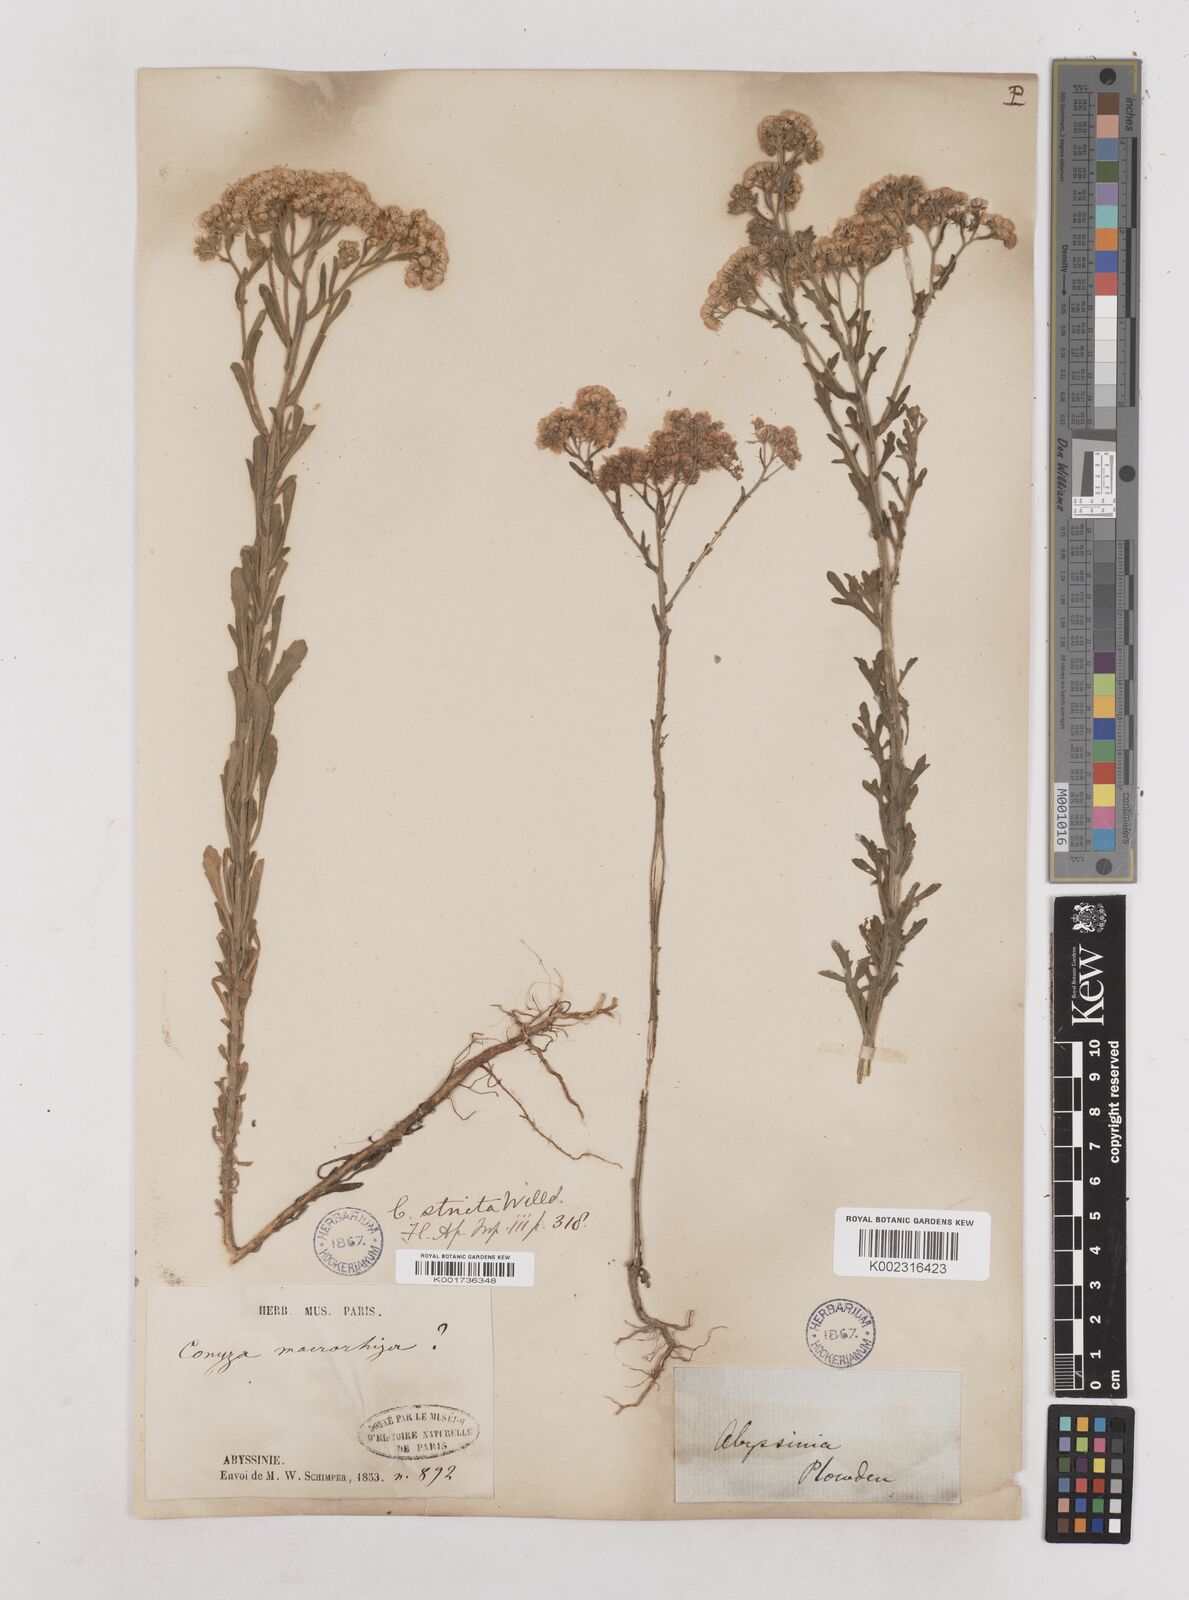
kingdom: Plantae
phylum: Tracheophyta
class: Magnoliopsida
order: Asterales
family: Asteraceae
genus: Nidorella
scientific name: Nidorella triloba
